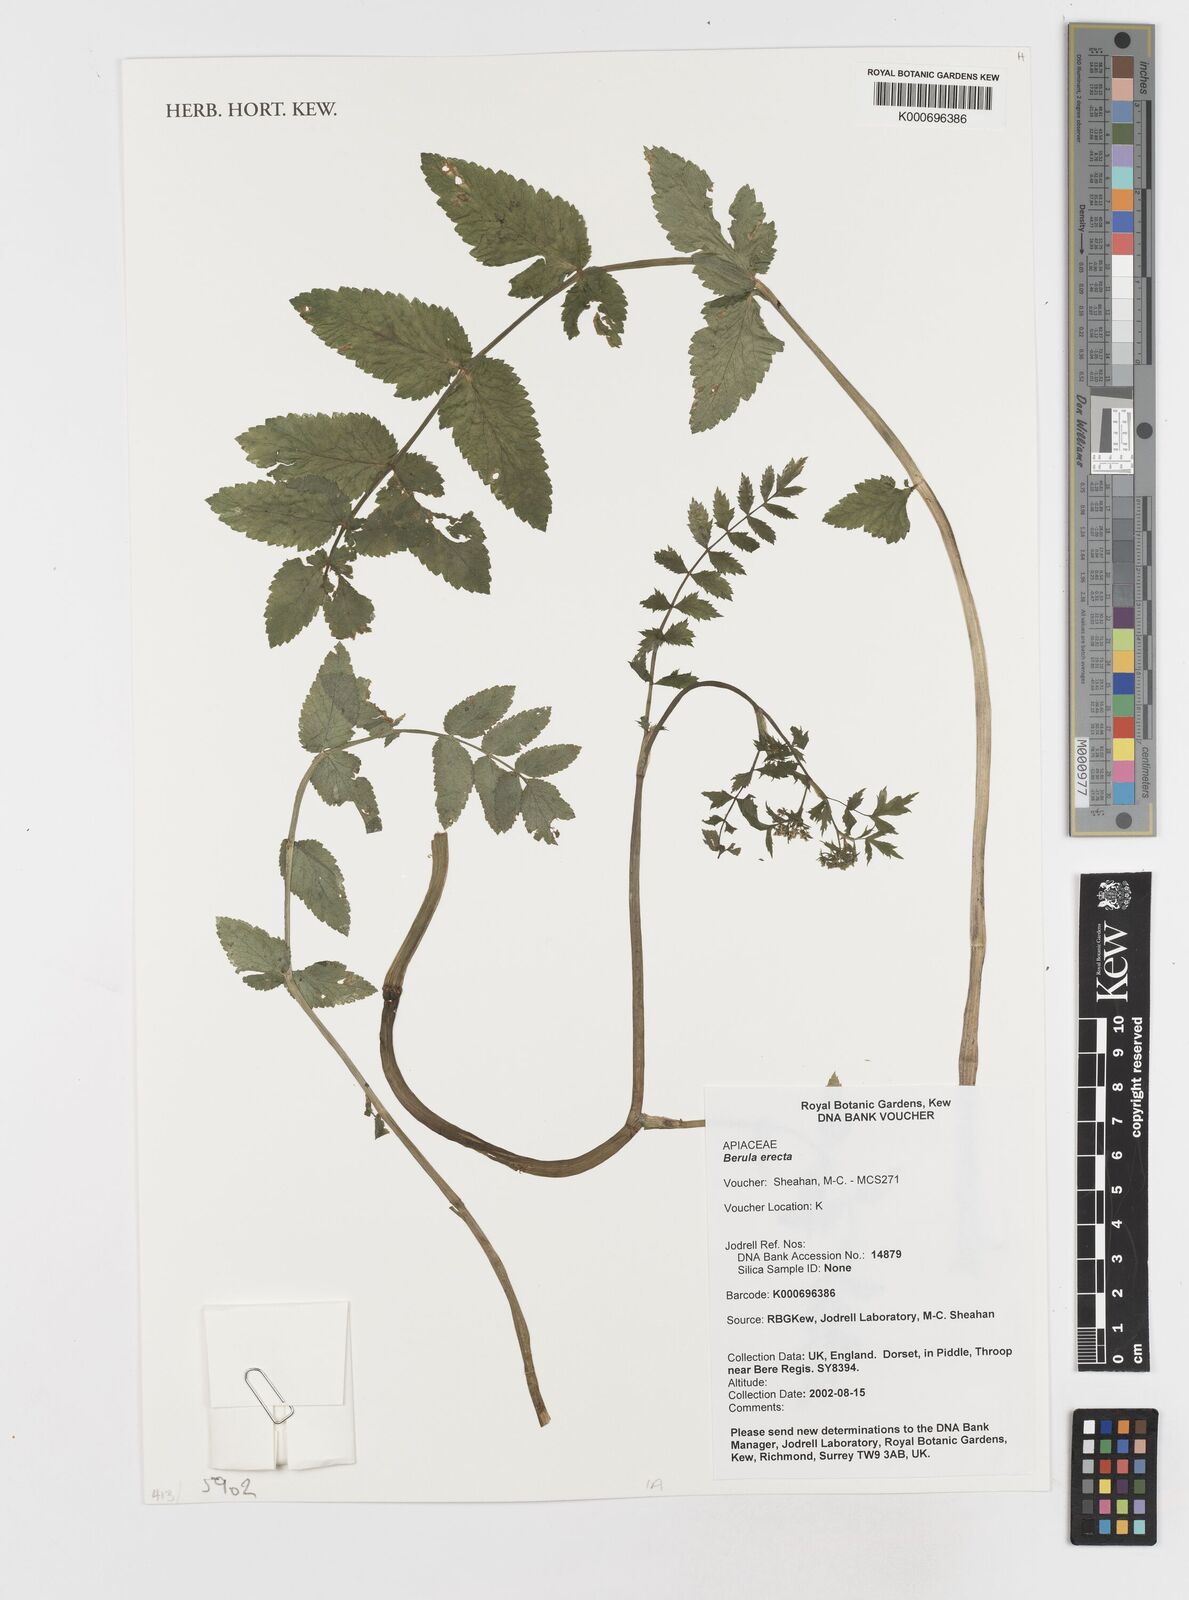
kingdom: Plantae
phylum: Tracheophyta
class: Magnoliopsida
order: Apiales
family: Apiaceae
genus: Berula
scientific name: Berula erecta
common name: Lesser water-parsnip
